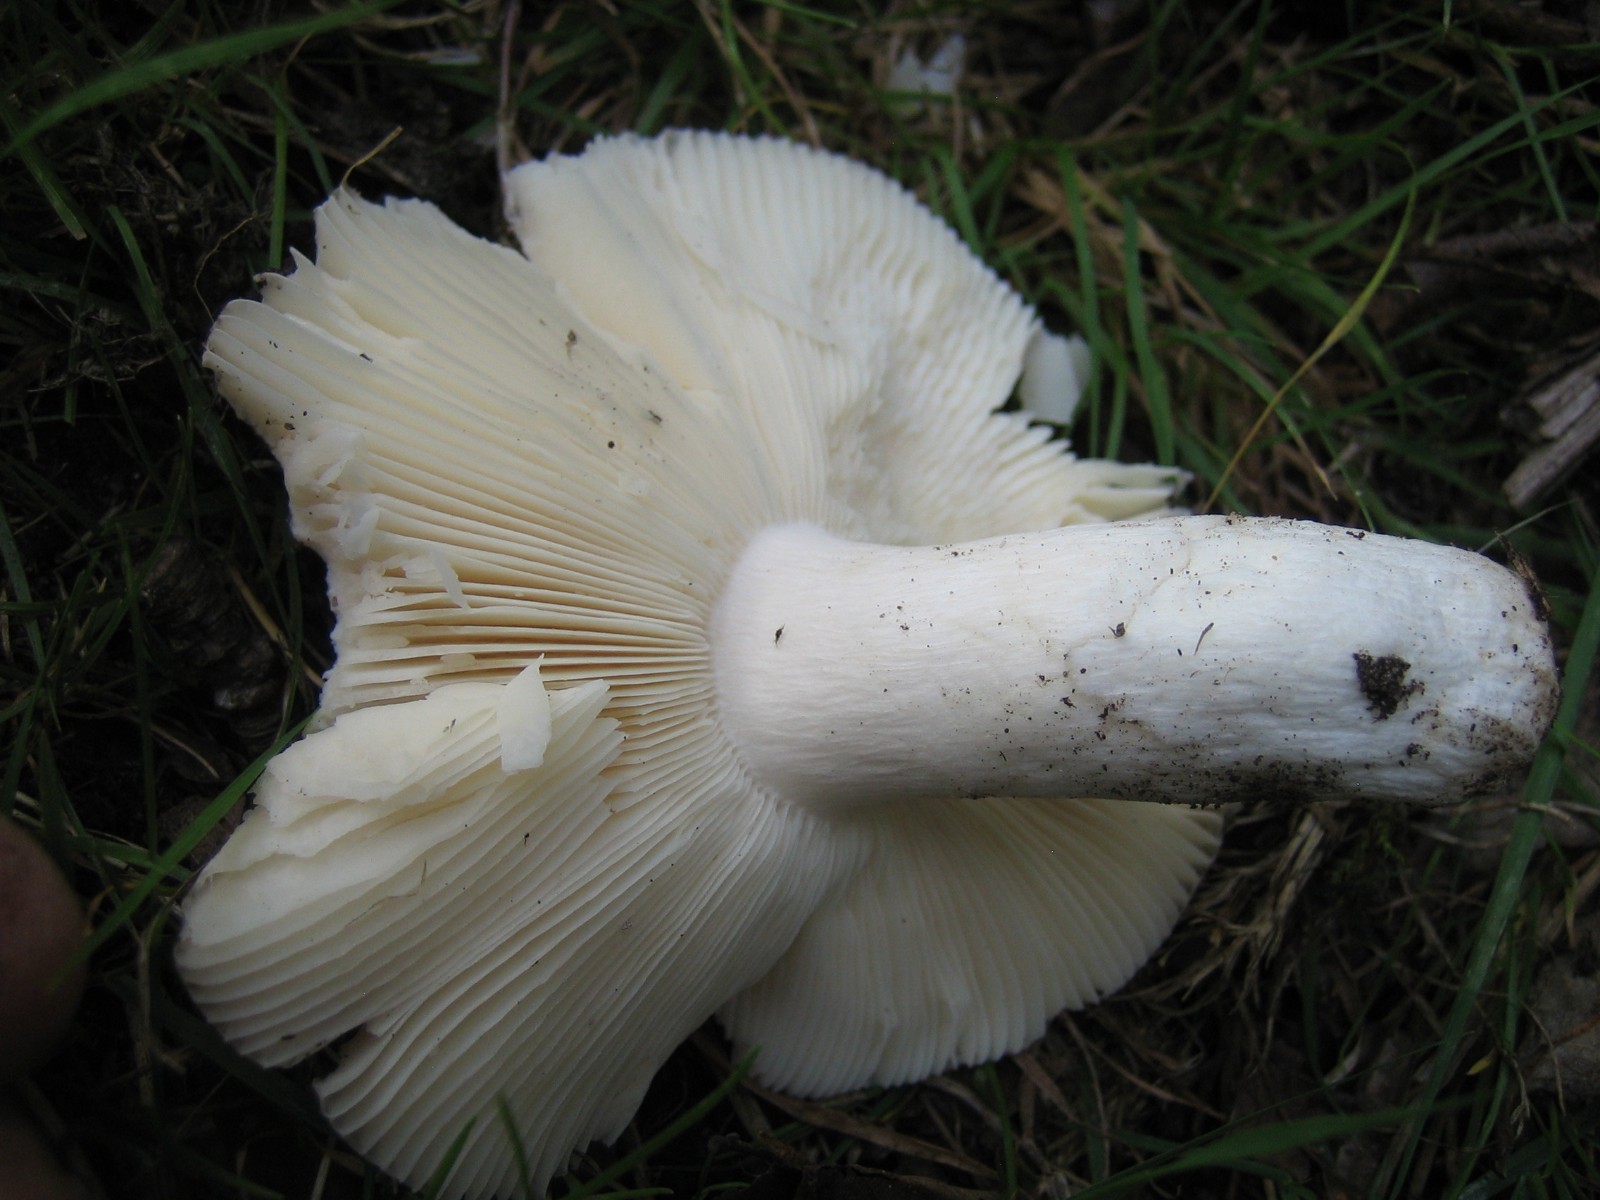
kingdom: Fungi
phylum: Basidiomycota
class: Agaricomycetes
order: Russulales
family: Russulaceae
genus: Russula
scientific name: Russula
